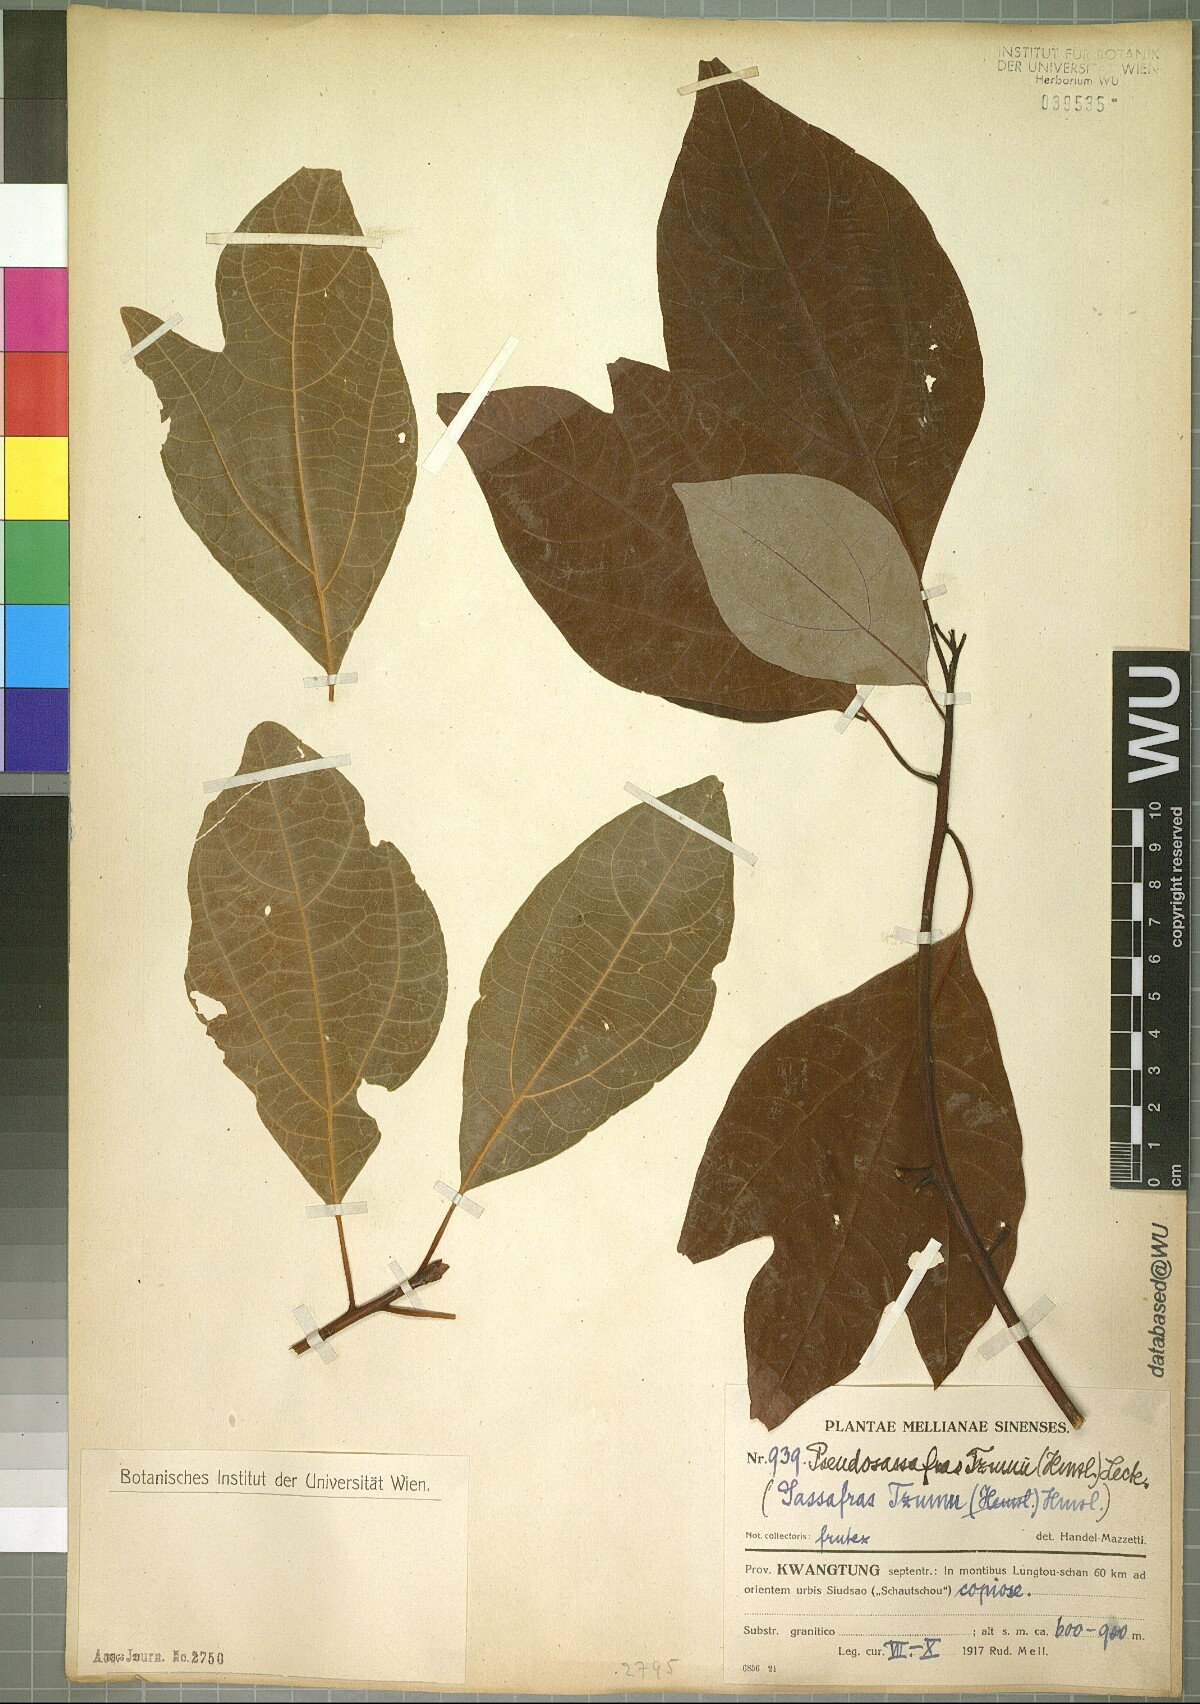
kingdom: Plantae
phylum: Tracheophyta
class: Magnoliopsida
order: Laurales
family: Lauraceae
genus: Sassafras
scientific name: Sassafras tzumu
